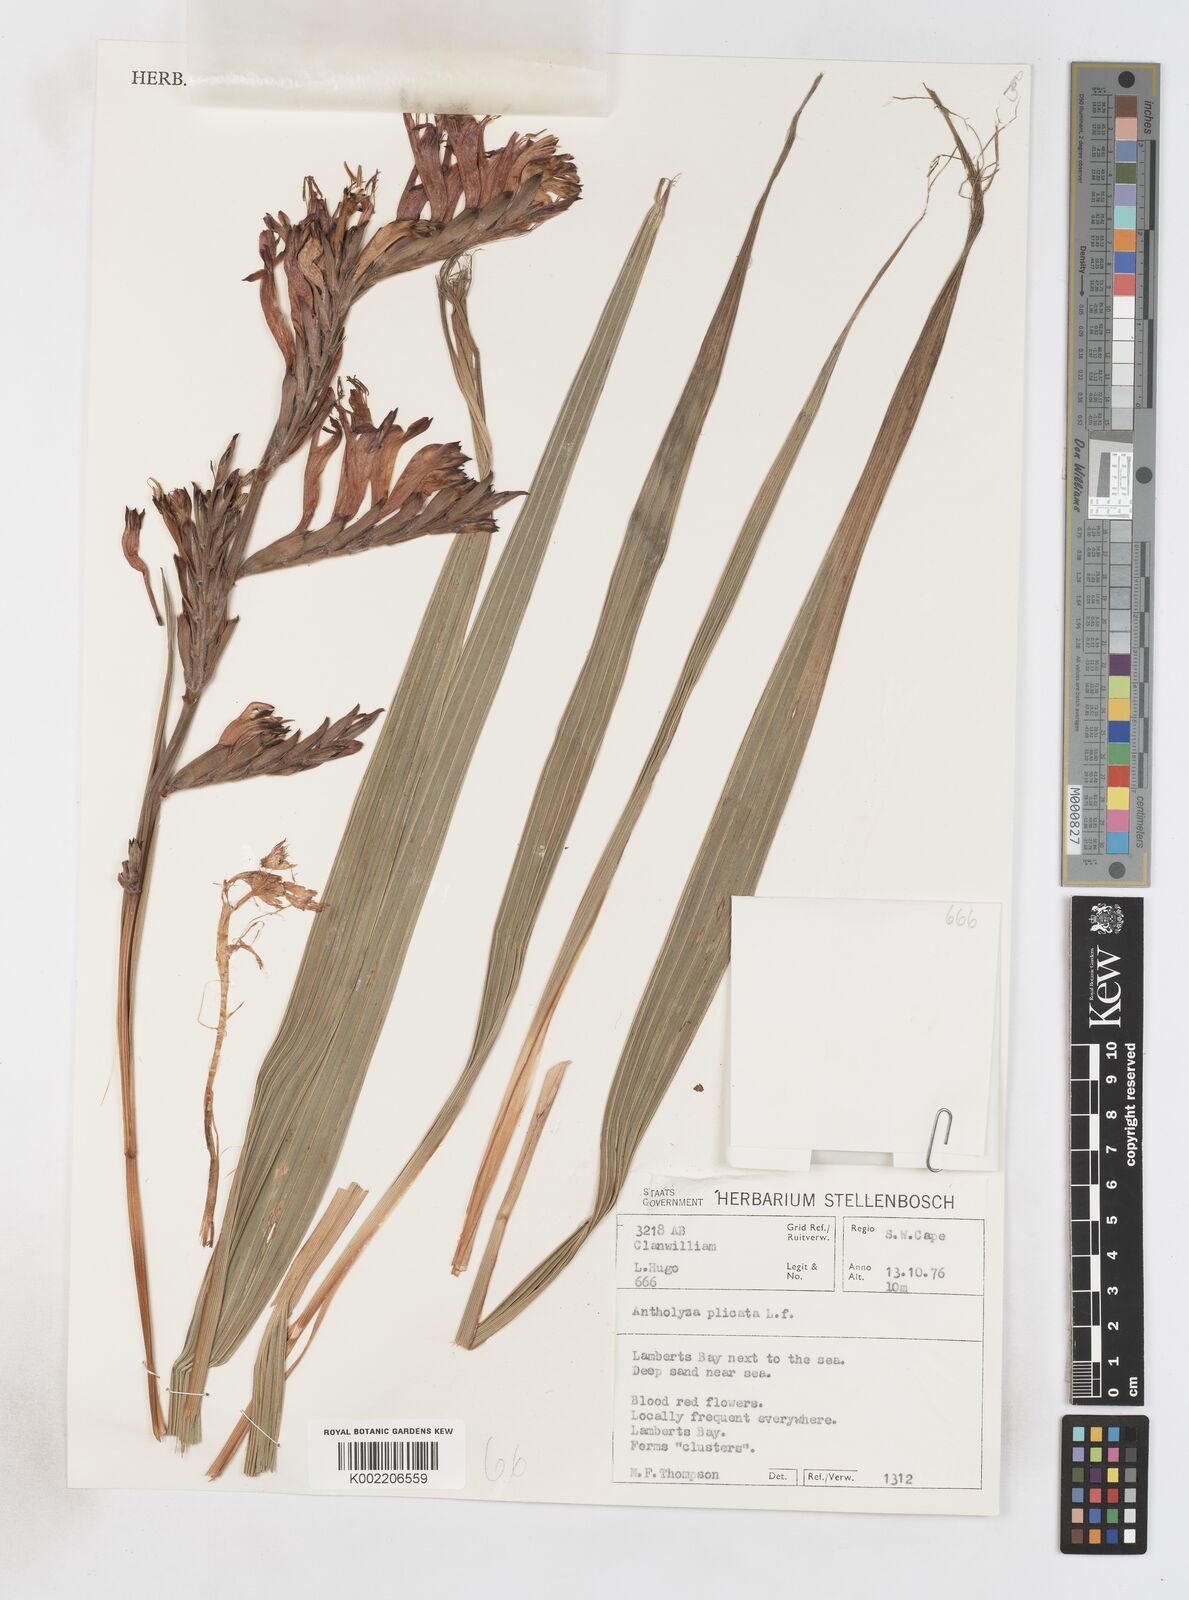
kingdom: Plantae
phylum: Tracheophyta
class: Liliopsida
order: Asparagales
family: Iridaceae
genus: Babiana
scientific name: Babiana villosula
